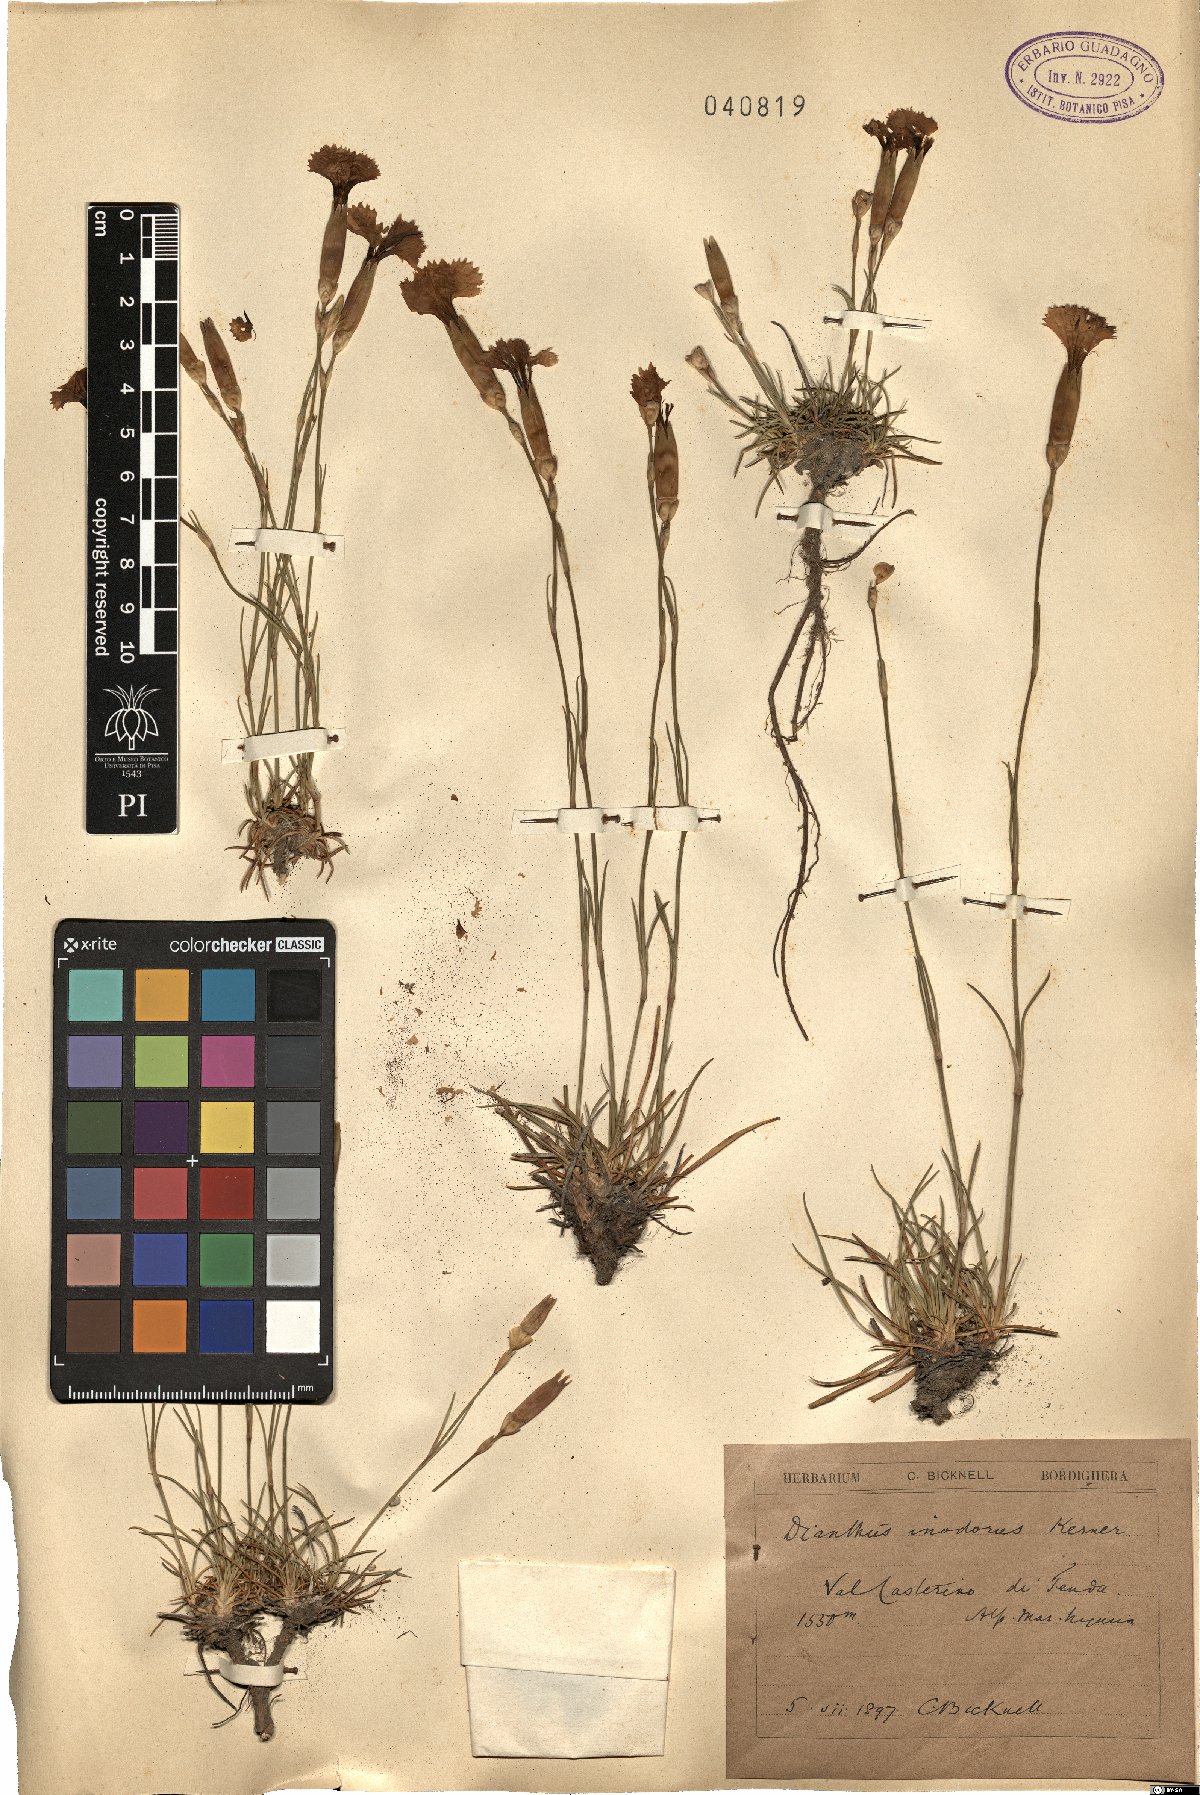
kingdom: Plantae
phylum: Tracheophyta
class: Magnoliopsida
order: Caryophyllales
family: Caryophyllaceae
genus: Dianthus
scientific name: Dianthus sylvestris
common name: Wood pink
